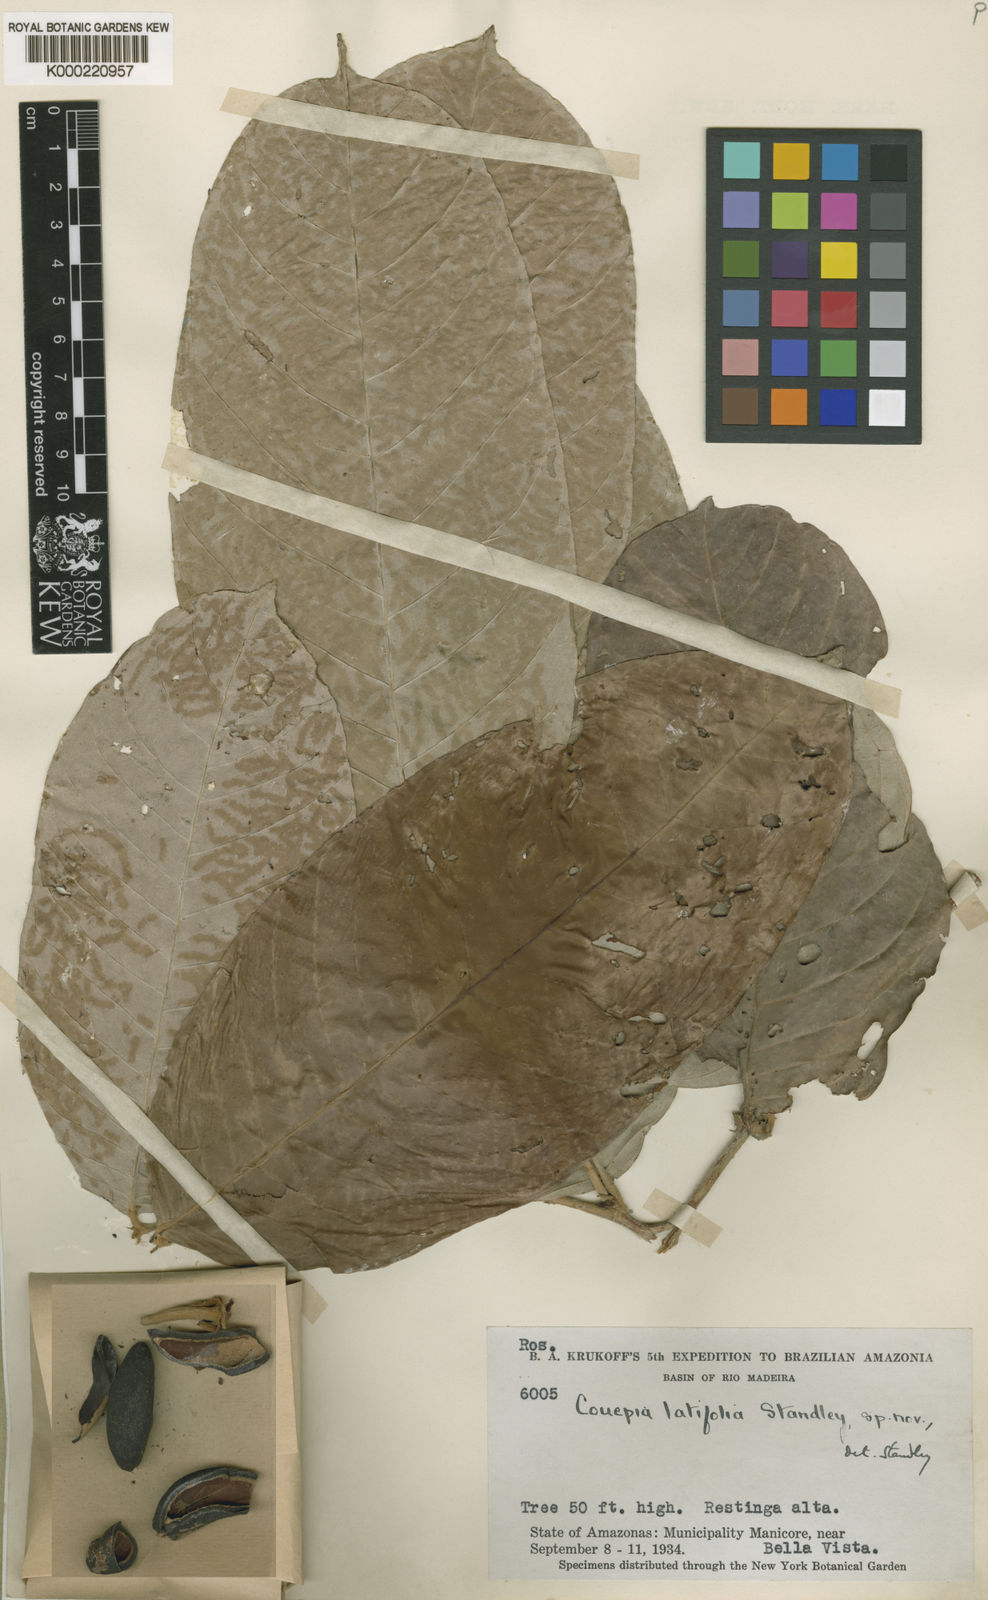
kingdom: Plantae
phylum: Tracheophyta
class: Magnoliopsida
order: Malpighiales
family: Chrysobalanaceae
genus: Couepia
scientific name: Couepia latifolia
